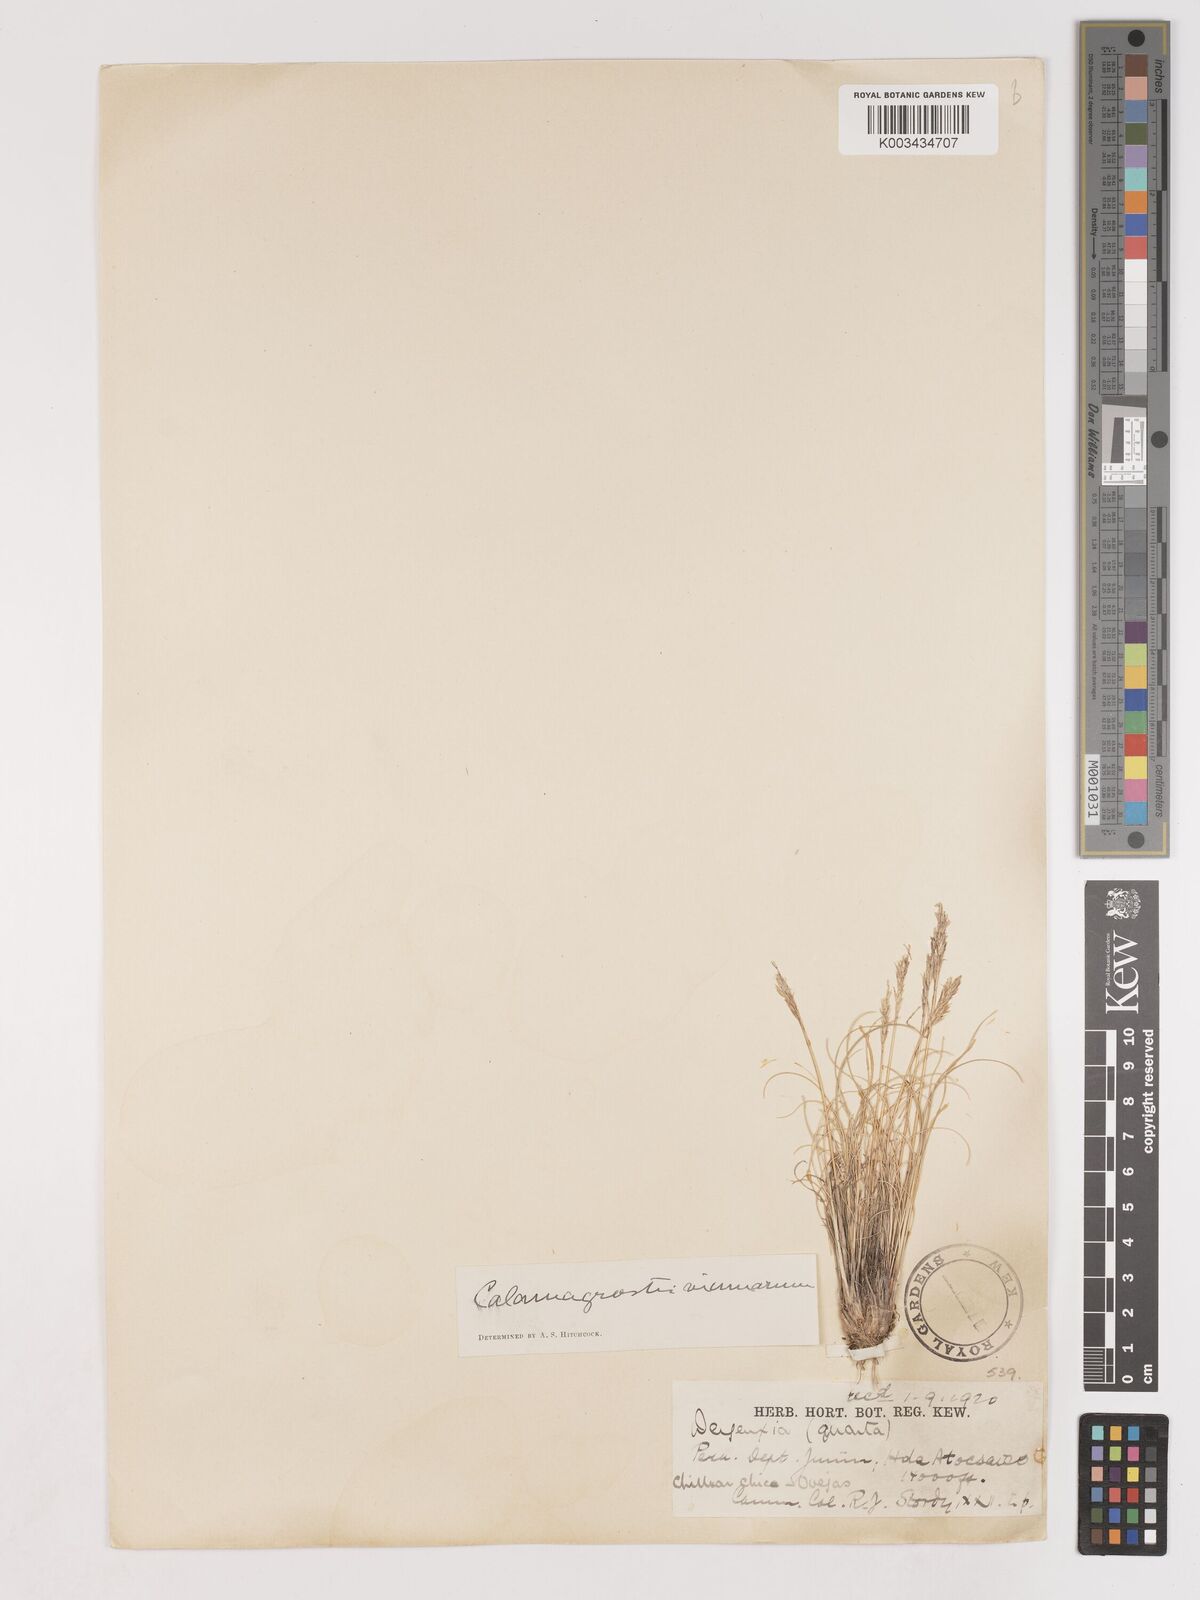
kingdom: Plantae
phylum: Tracheophyta
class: Liliopsida
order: Poales
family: Poaceae
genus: Cinnagrostis
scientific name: Cinnagrostis vicunarum
